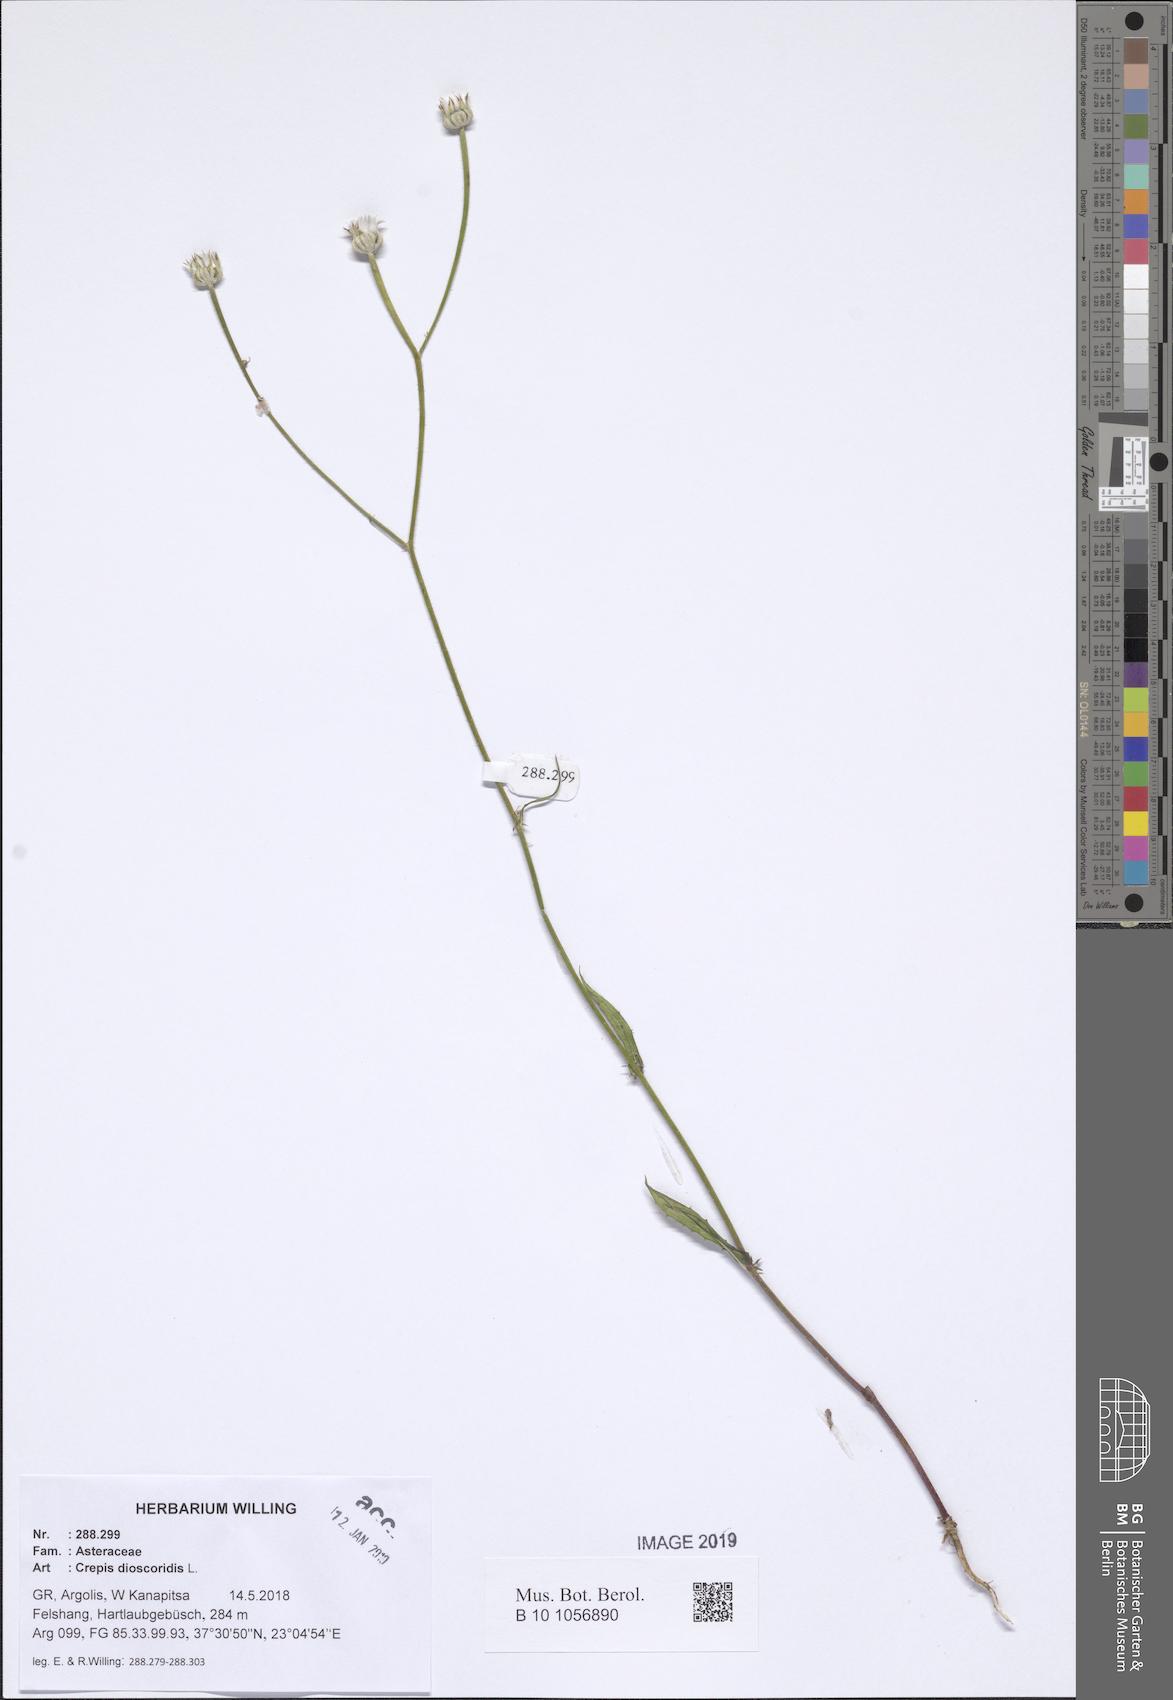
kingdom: Plantae
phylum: Tracheophyta
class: Magnoliopsida
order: Asterales
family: Asteraceae
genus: Crepis
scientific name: Crepis dioscoridis
